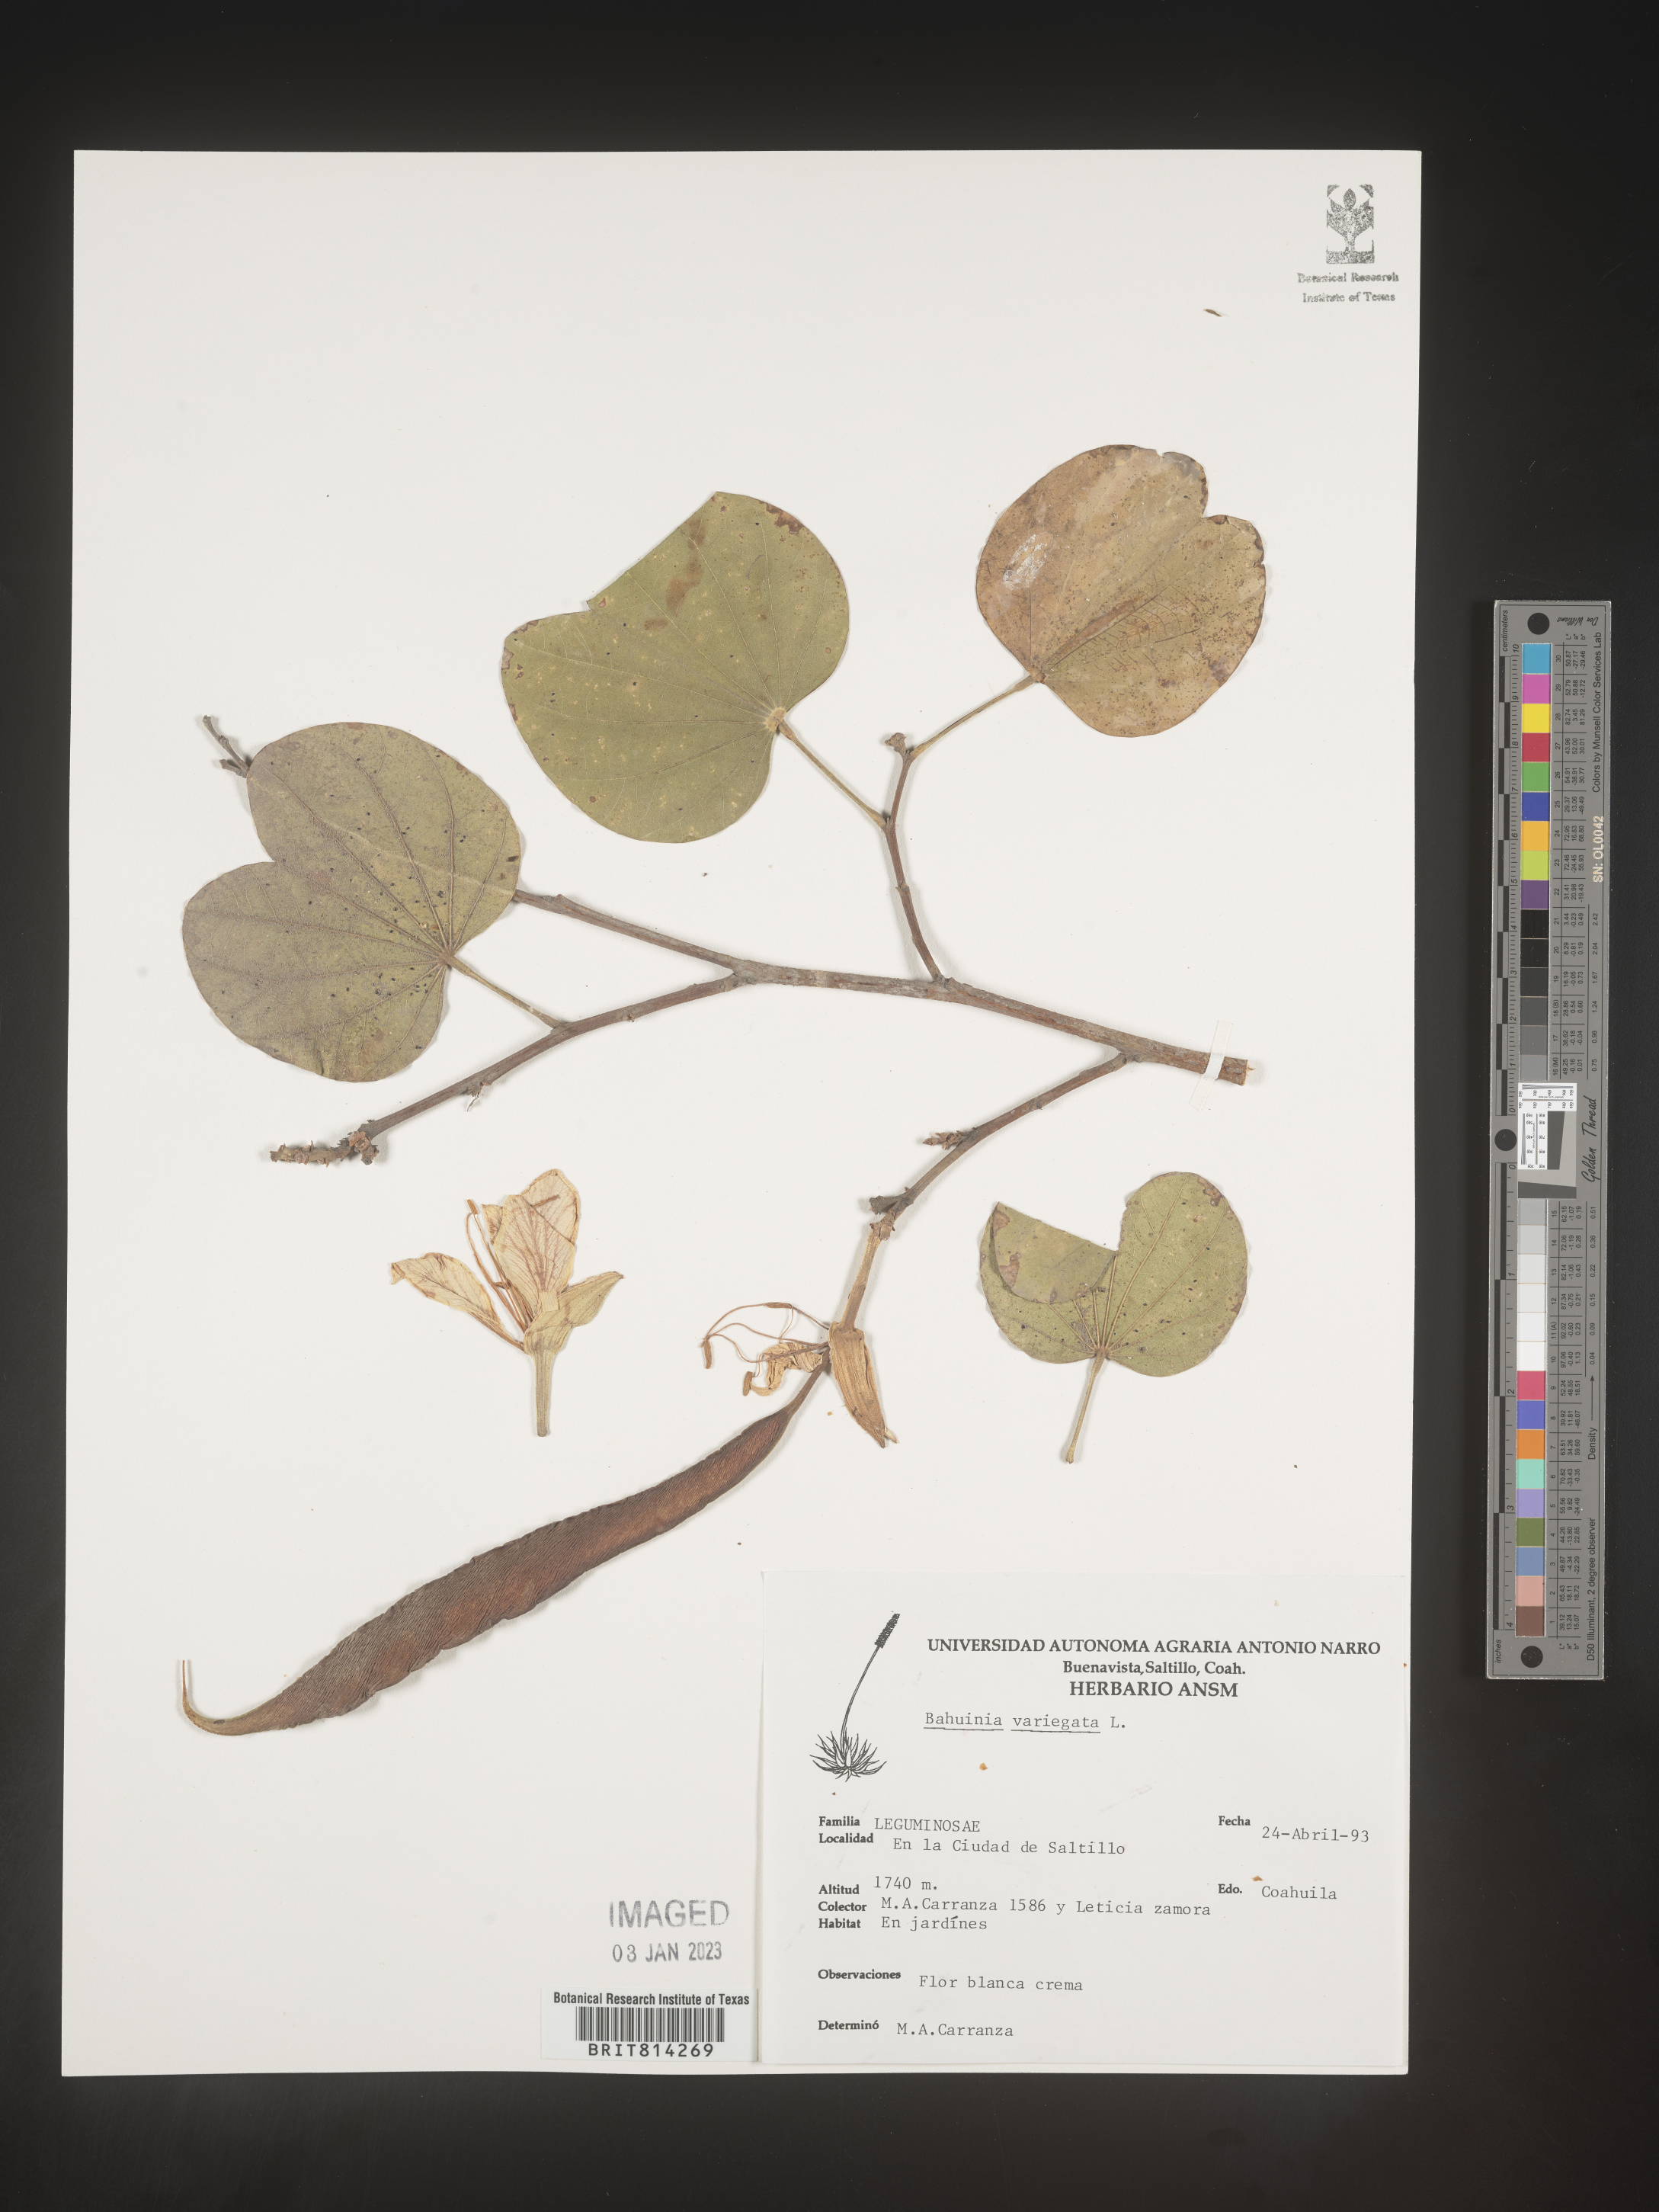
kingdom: Plantae
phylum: Tracheophyta
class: Magnoliopsida
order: Fabales
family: Fabaceae
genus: Bauhinia
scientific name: Bauhinia
